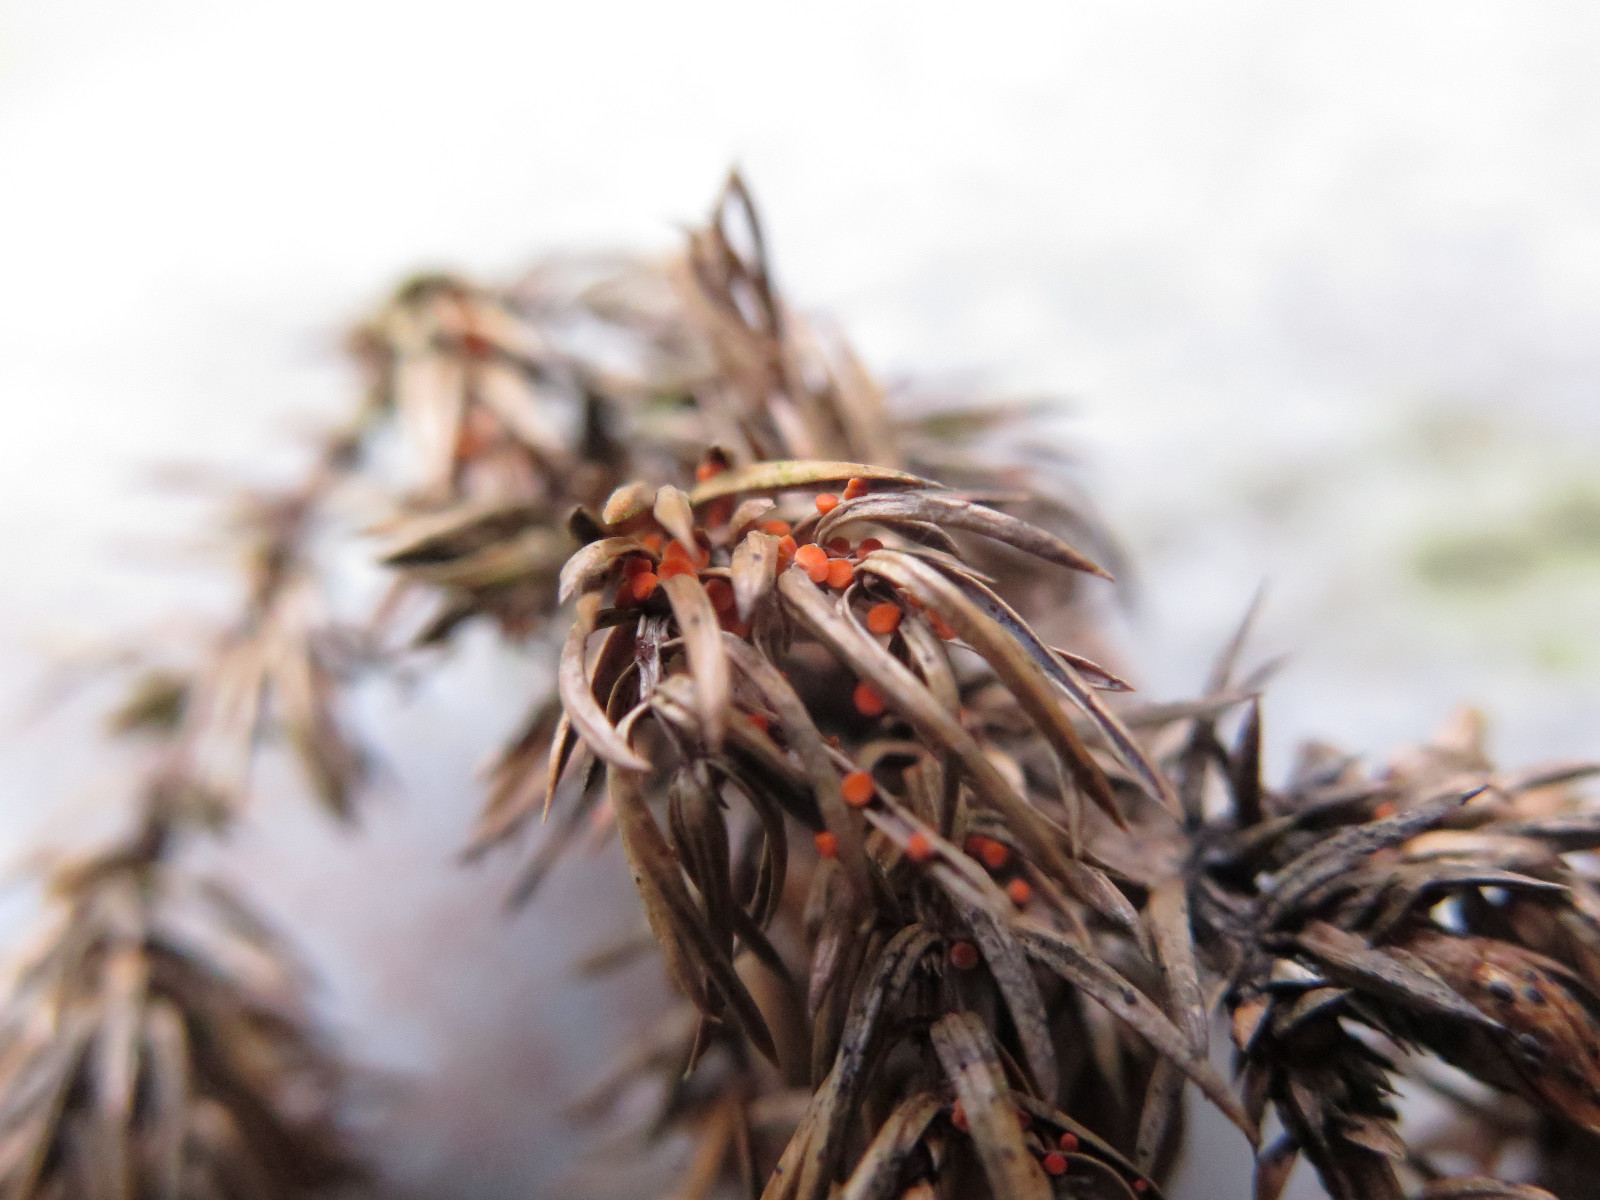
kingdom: Fungi
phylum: Ascomycota
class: Pezizomycetes
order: Pezizales
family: Sarcoscyphaceae
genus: Pithya
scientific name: Pithya cupressina
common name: lille dukatbæger
